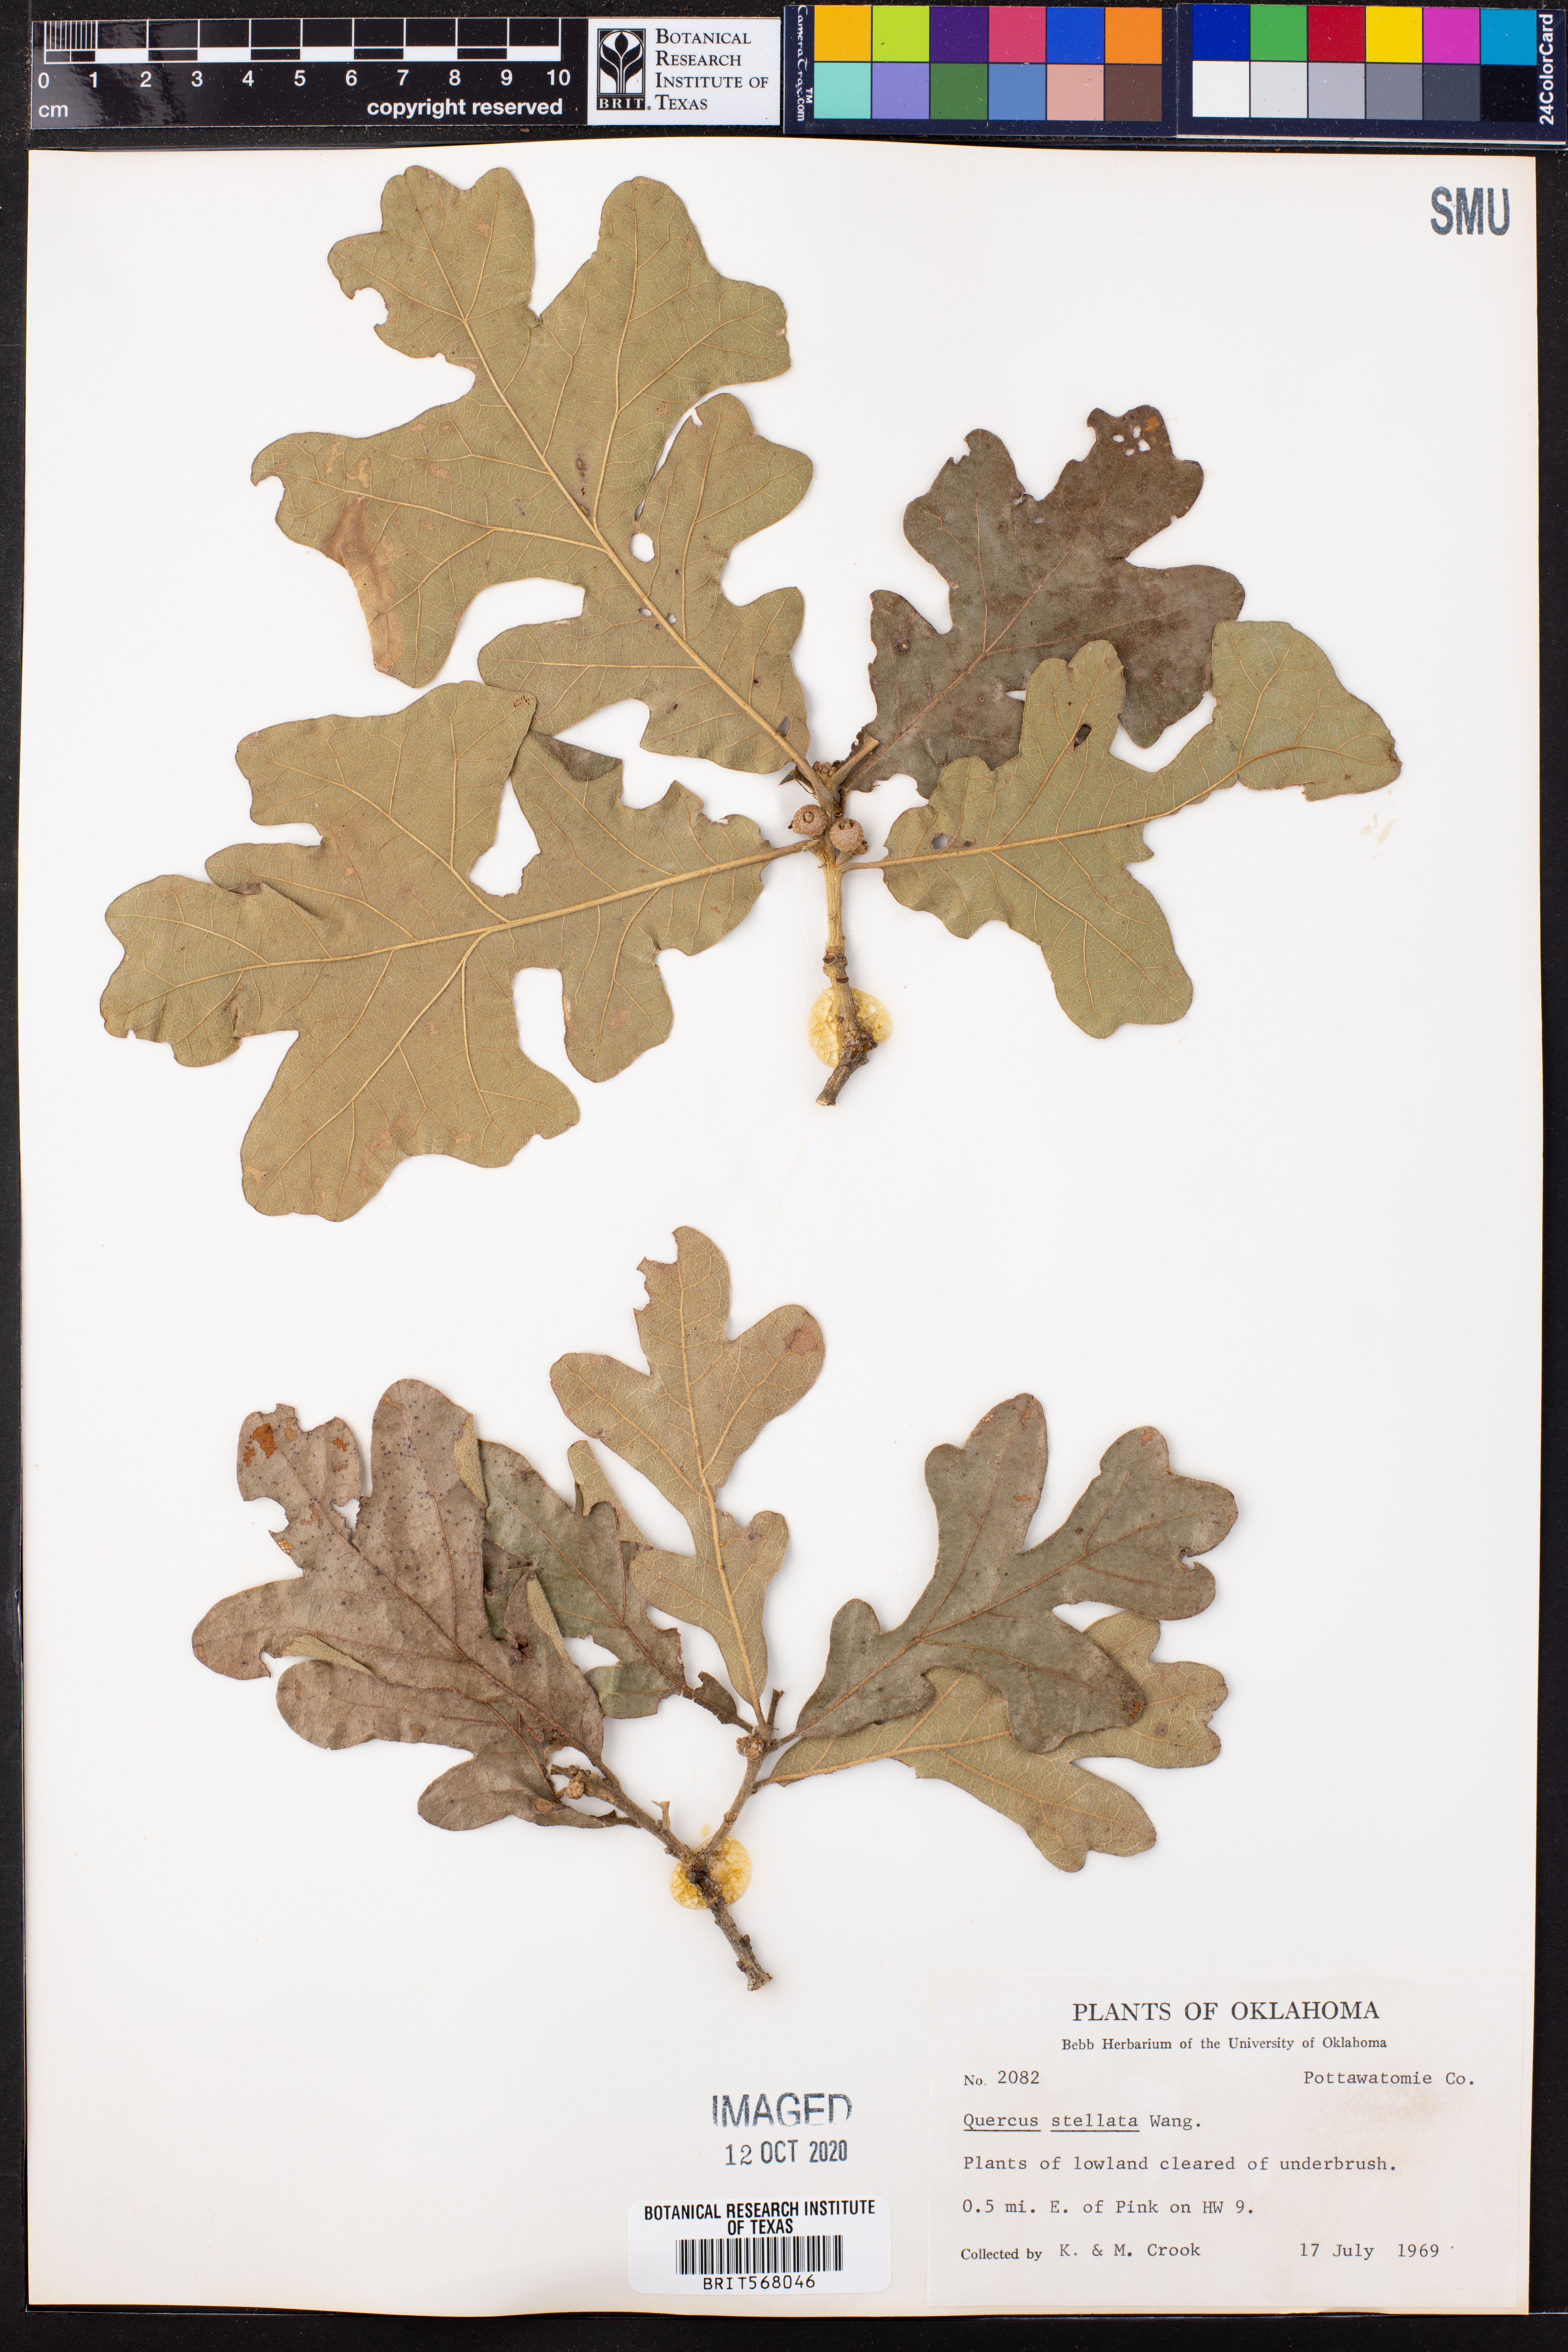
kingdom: Plantae
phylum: Tracheophyta
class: Magnoliopsida
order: Fagales
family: Fagaceae
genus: Quercus
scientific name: Quercus stellata
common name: Post oak
